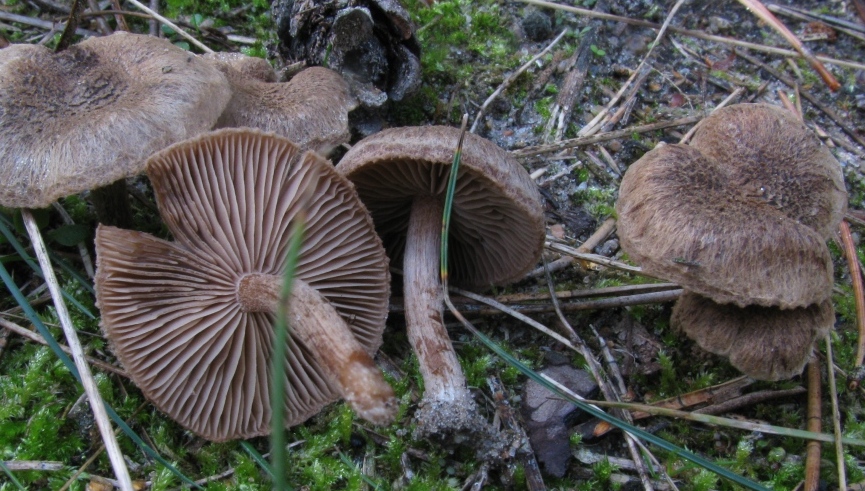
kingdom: Fungi
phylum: Basidiomycota
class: Agaricomycetes
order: Agaricales
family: Inocybaceae
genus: Inocybe
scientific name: Inocybe lacera
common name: laset trævlhat
